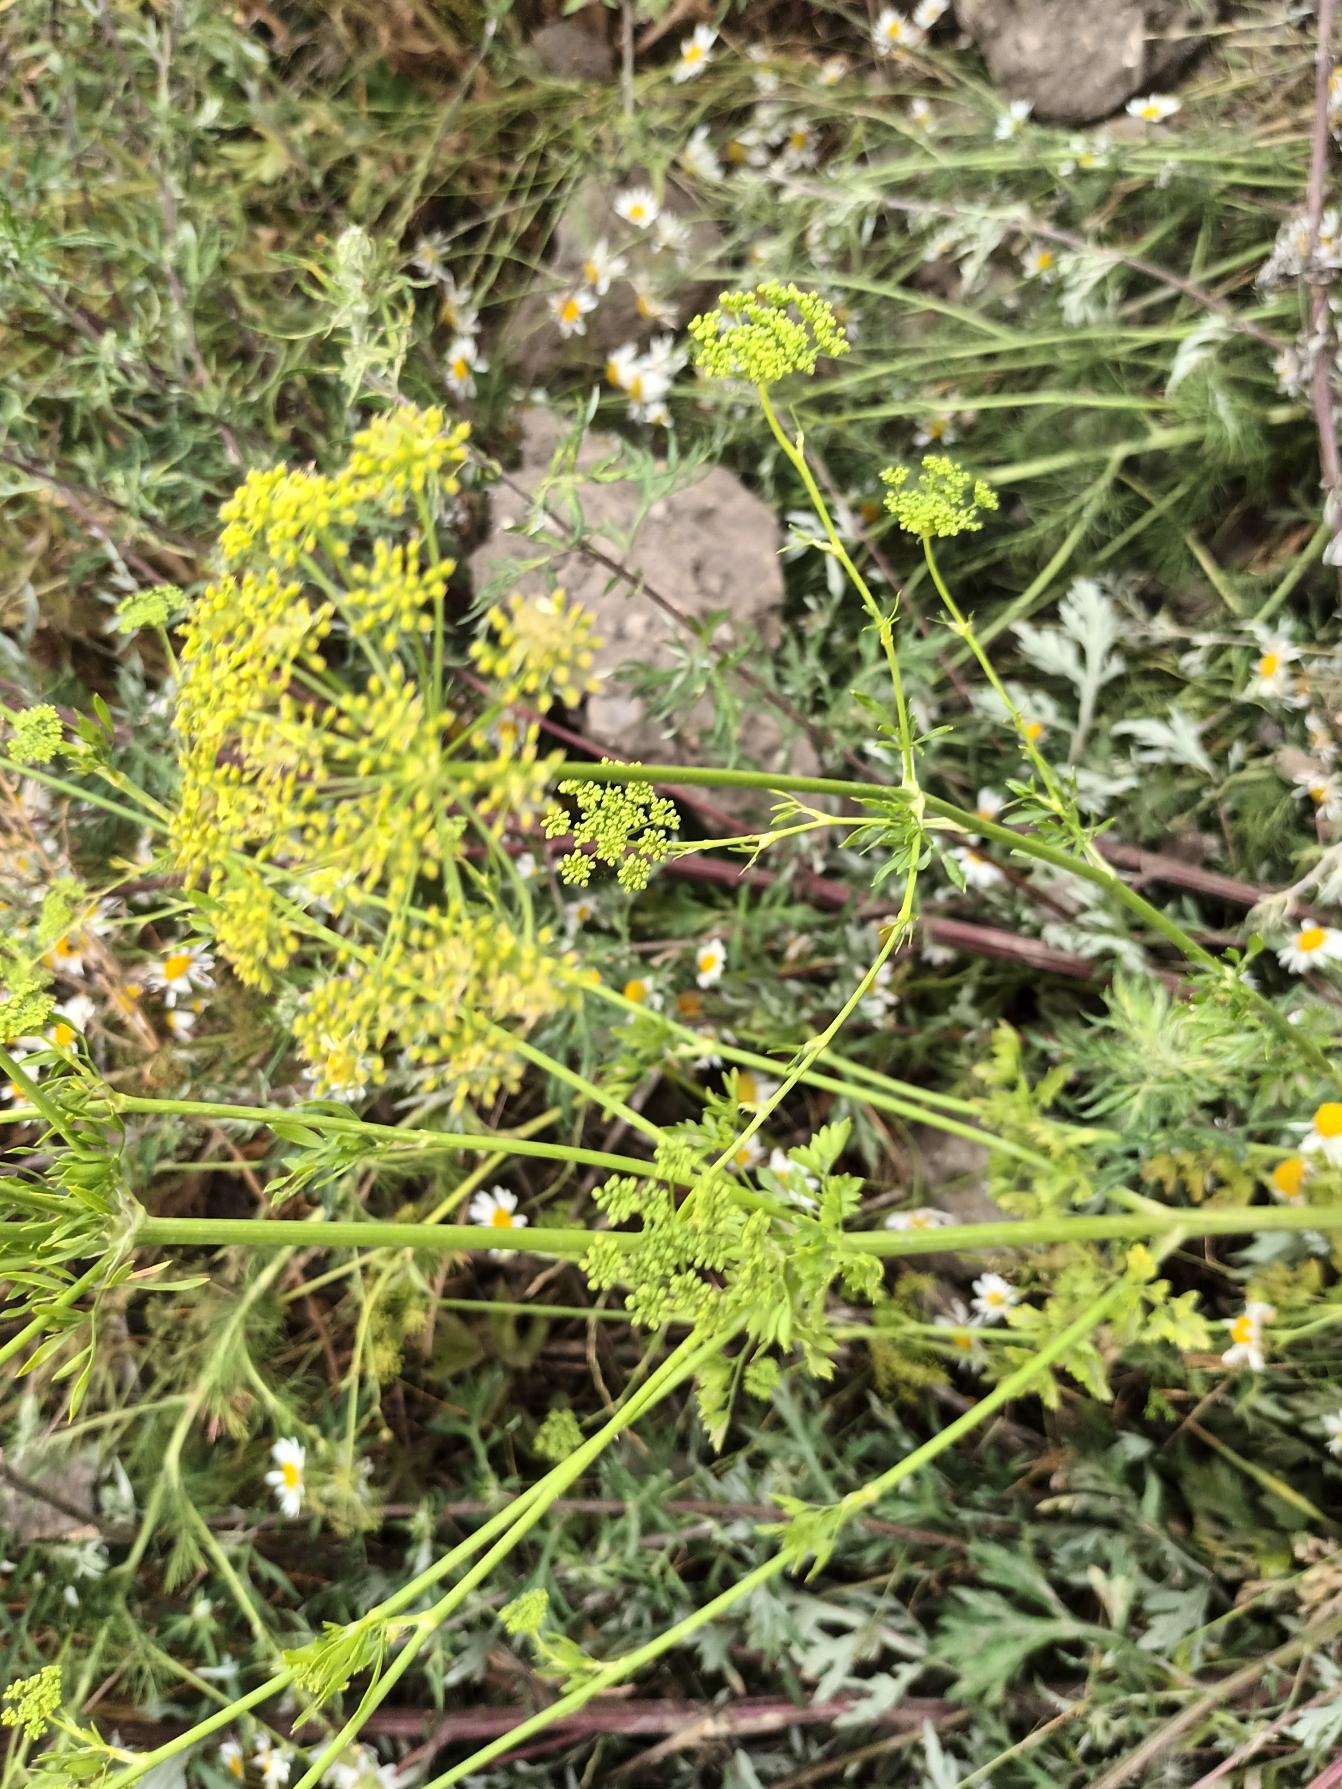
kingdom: Plantae
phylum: Tracheophyta
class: Magnoliopsida
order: Apiales
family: Apiaceae
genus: Petroselinum
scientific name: Petroselinum crispum
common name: Persille
